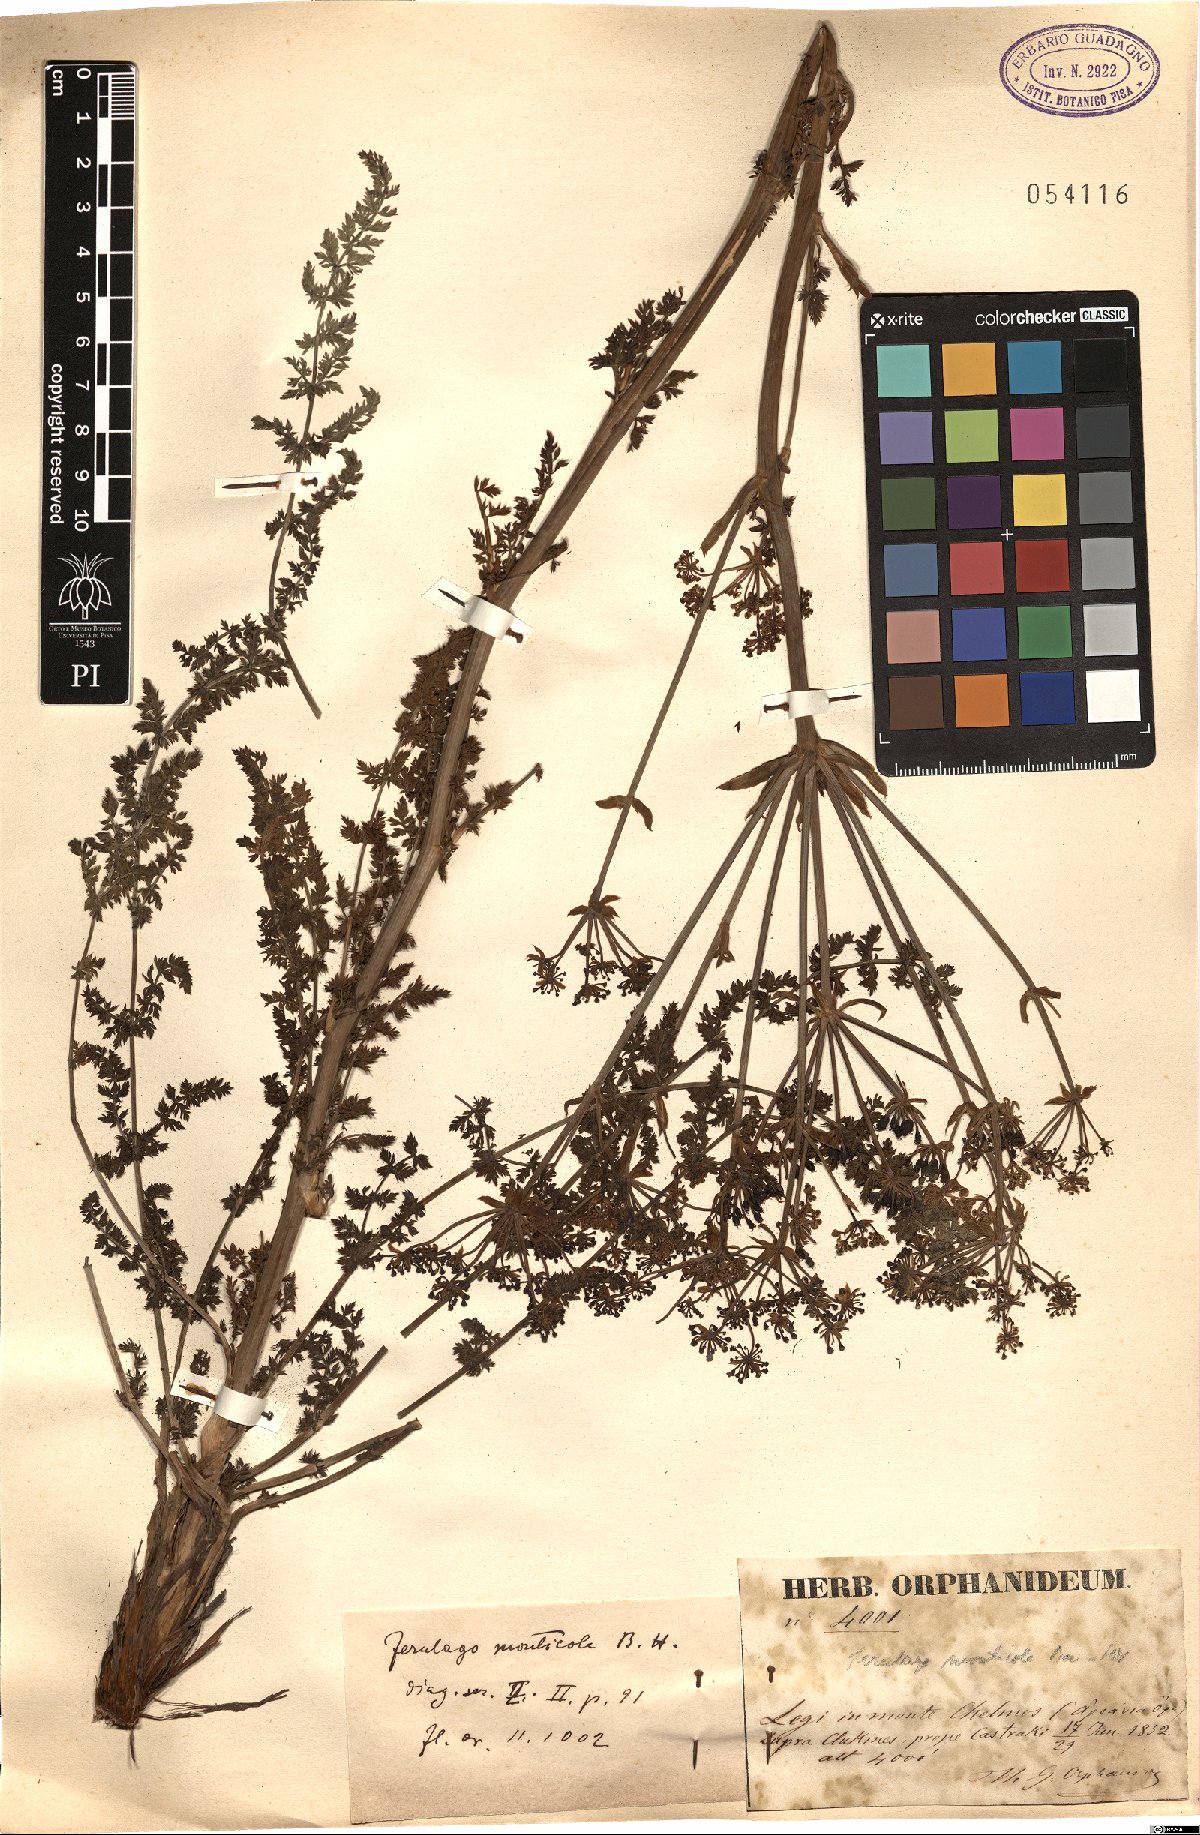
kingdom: Plantae
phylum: Tracheophyta
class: Magnoliopsida
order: Apiales
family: Apiaceae
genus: Ferulago
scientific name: Ferulago sylvatica
